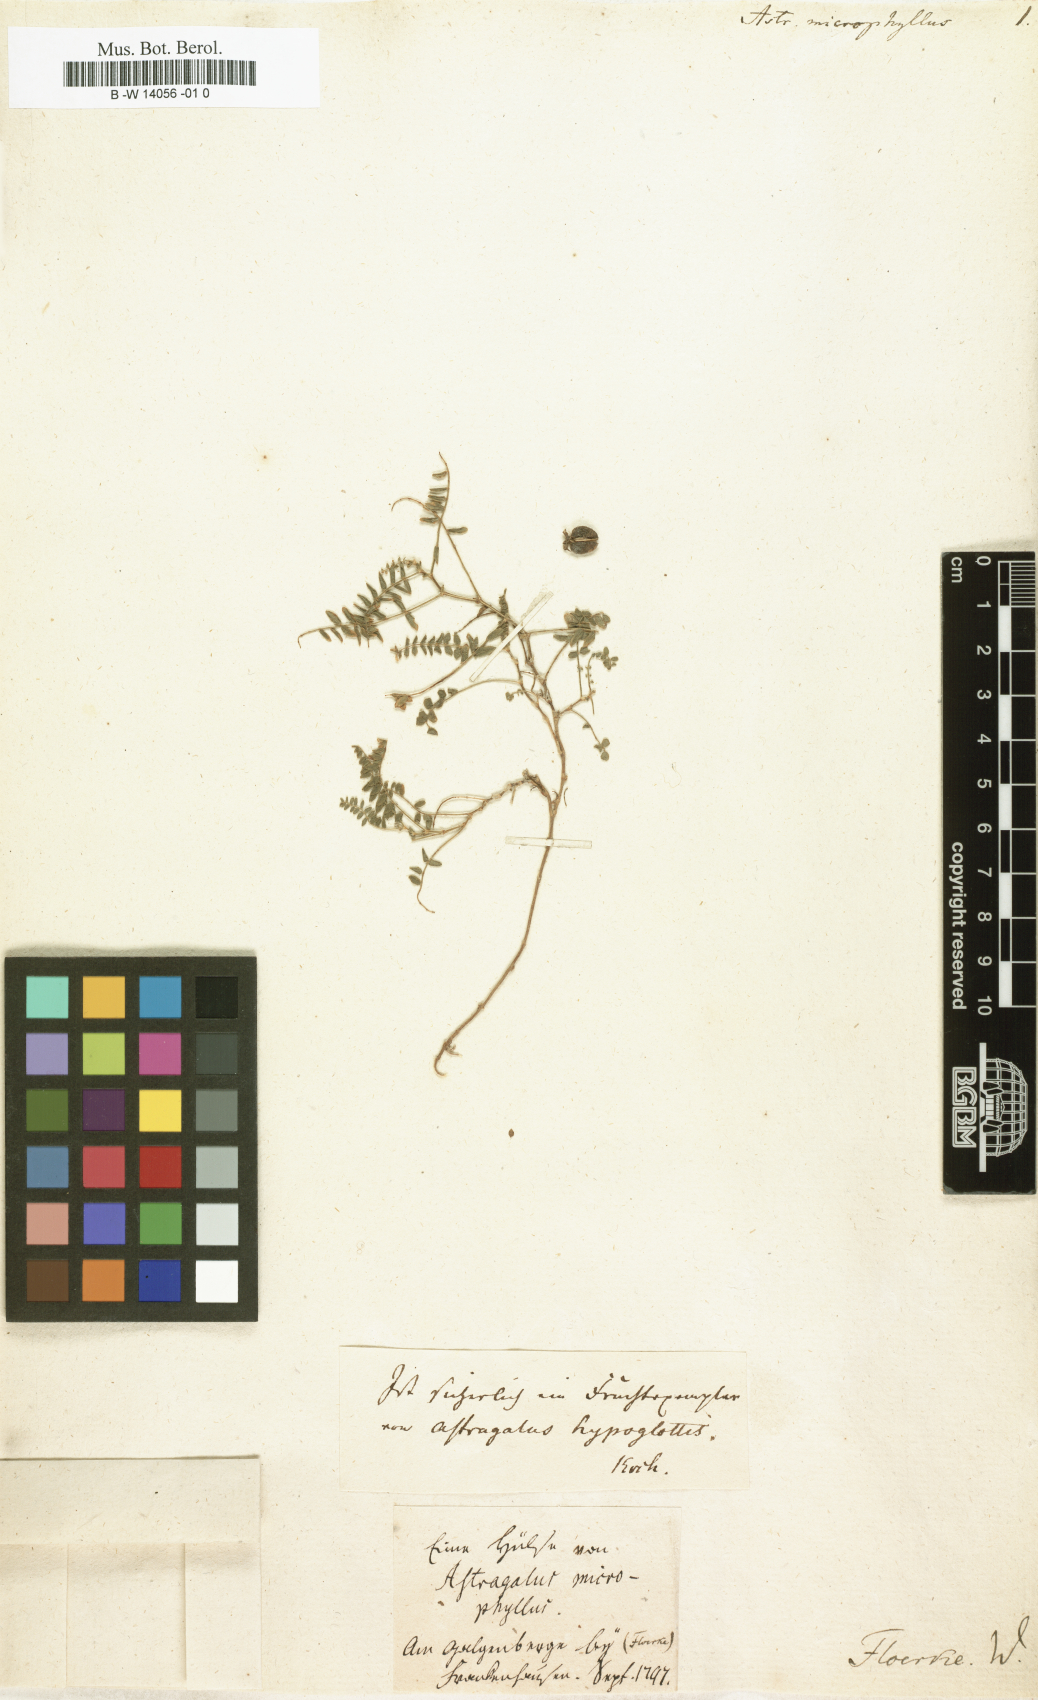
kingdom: Plantae
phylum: Tracheophyta
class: Magnoliopsida
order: Fabales
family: Fabaceae
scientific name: Fabaceae
